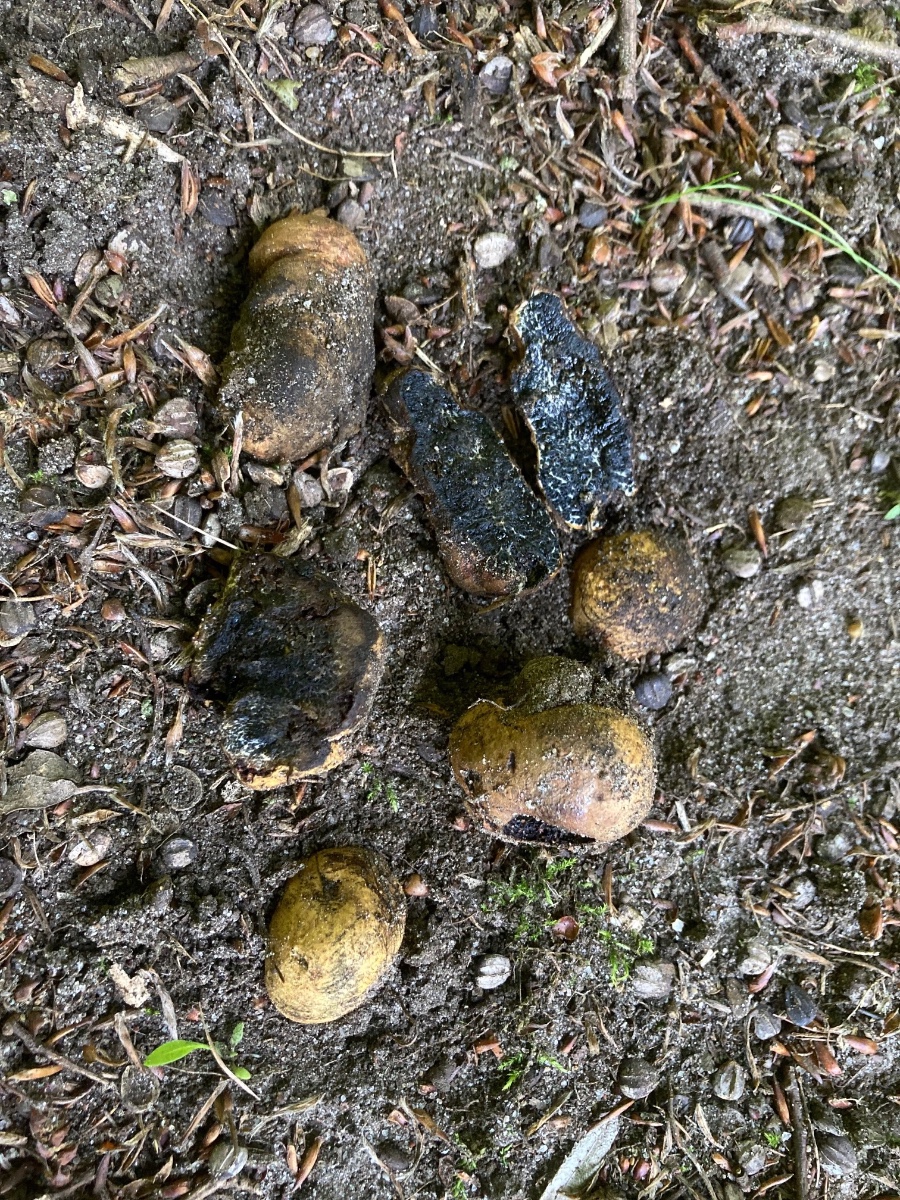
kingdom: Fungi
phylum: Basidiomycota
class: Agaricomycetes
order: Boletales
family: Paxillaceae
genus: Melanogaster
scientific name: Melanogaster broomeanus
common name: broget slimtrøffel
